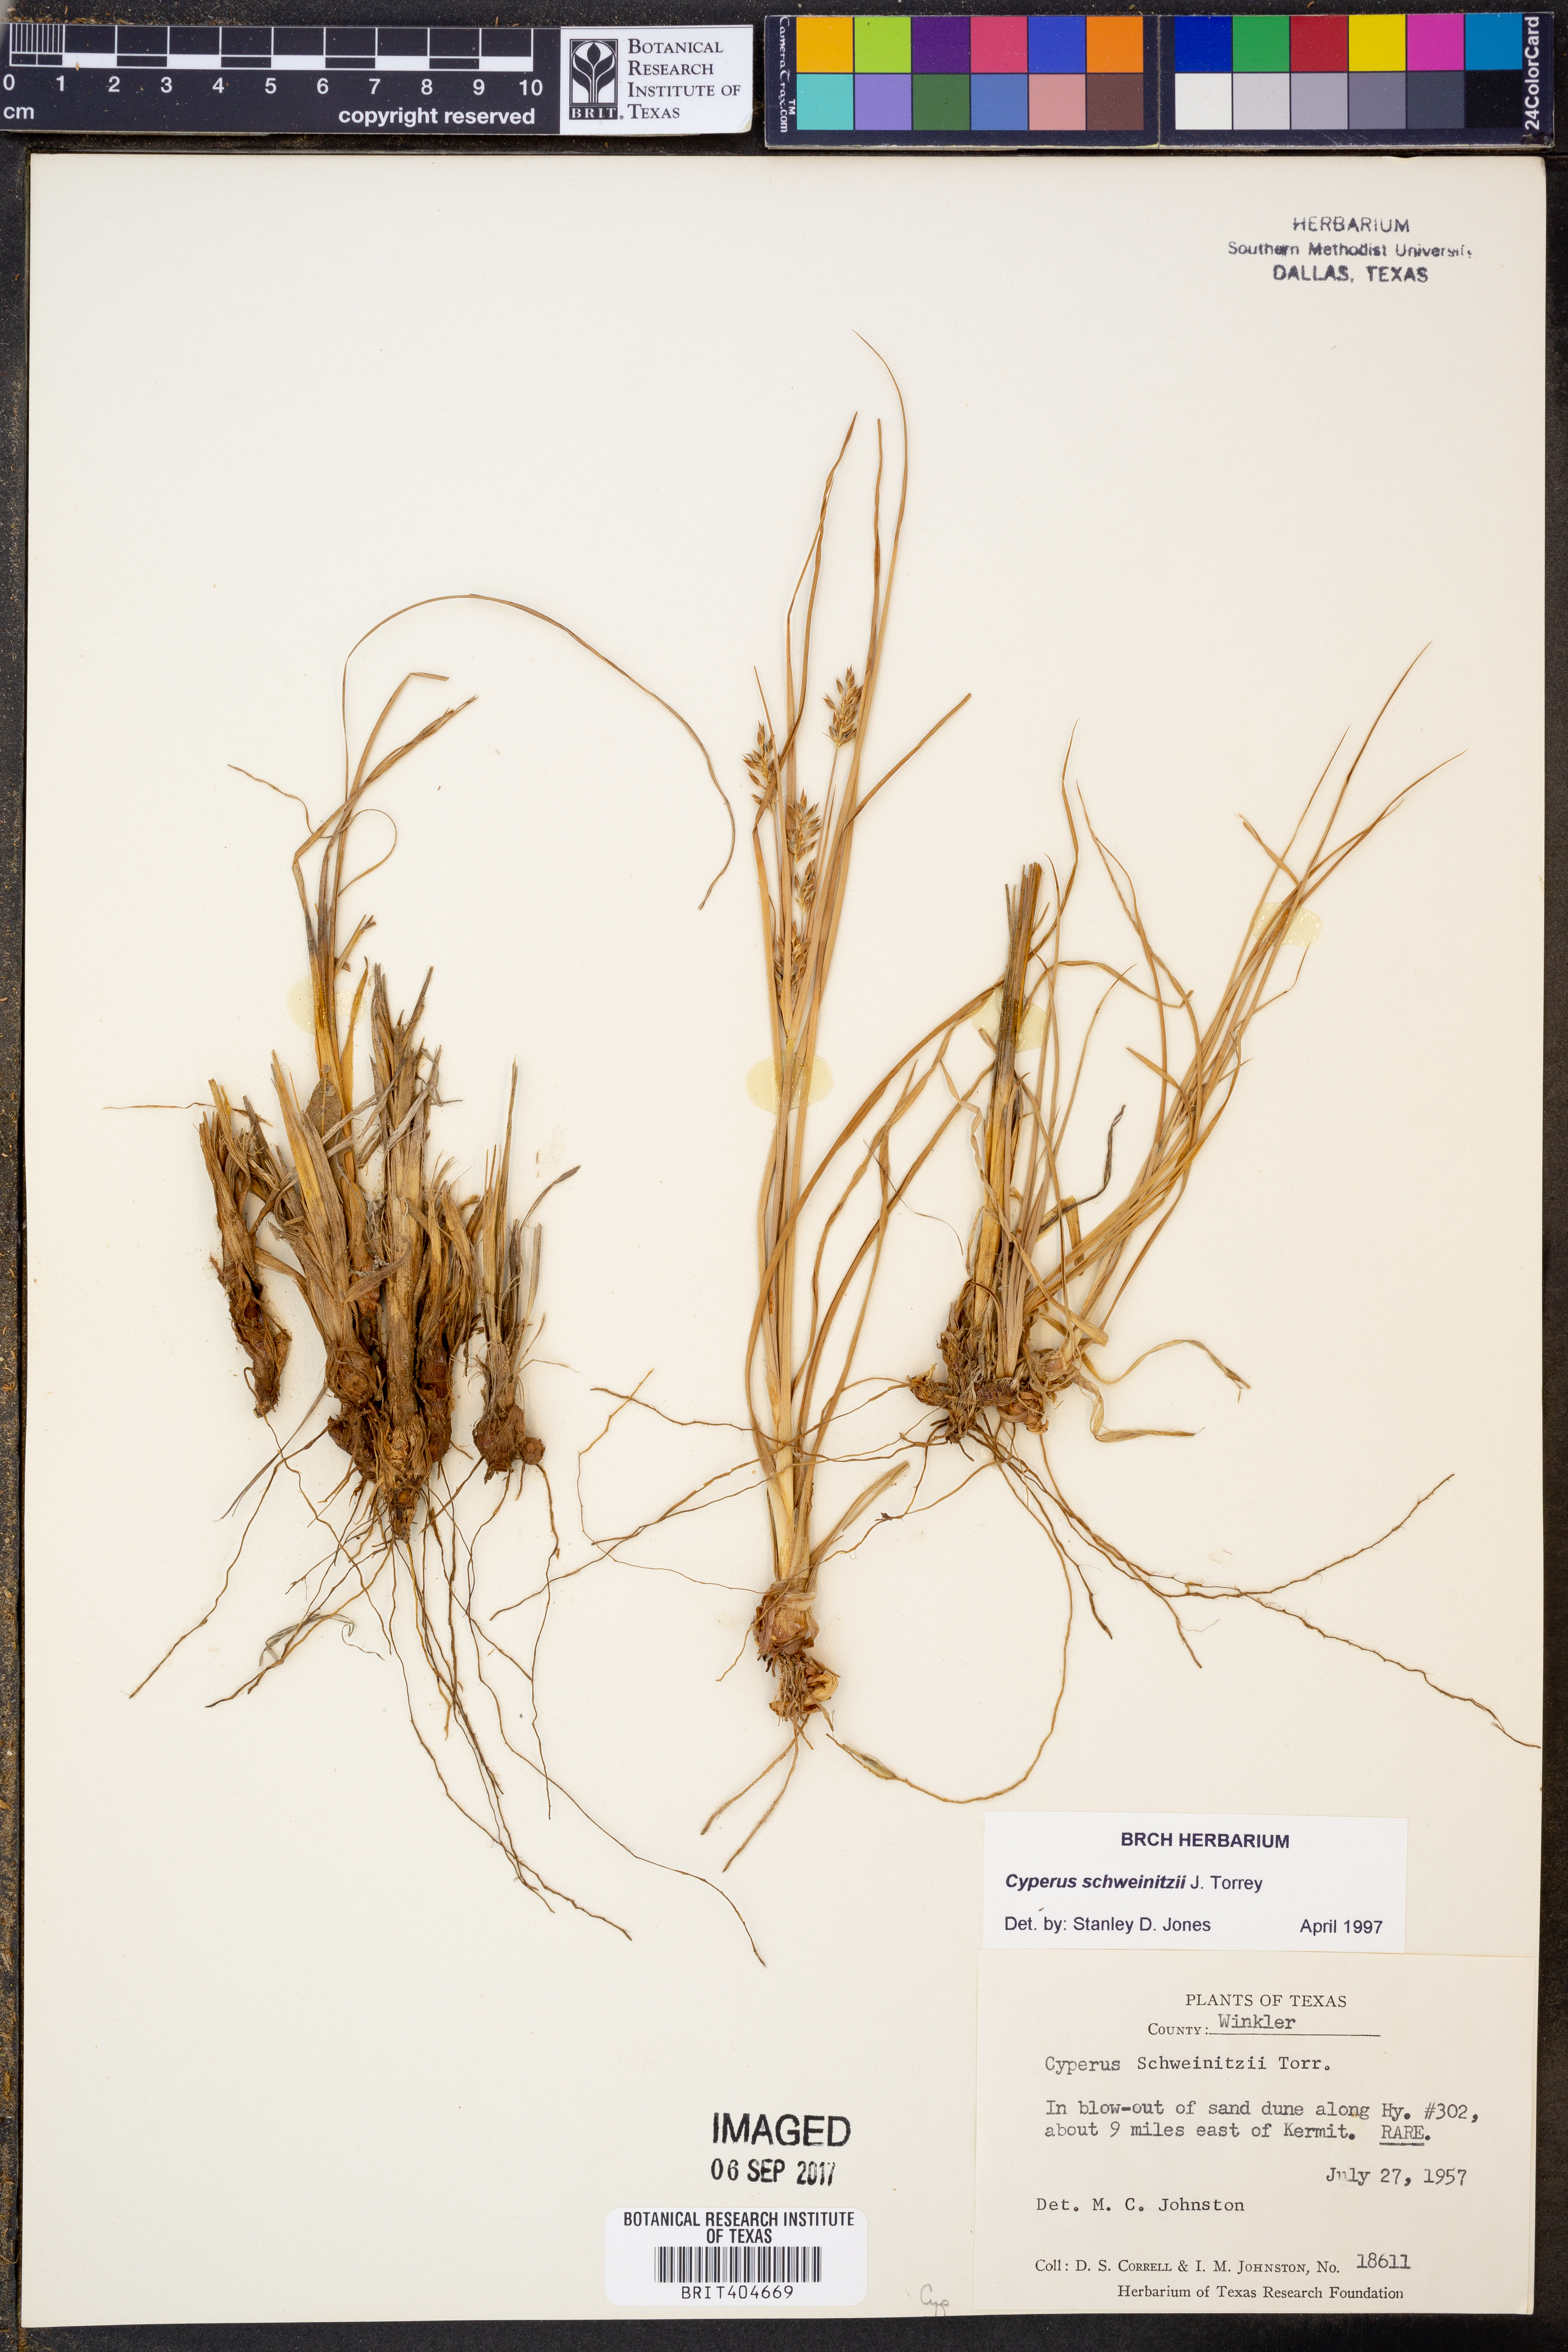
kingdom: Plantae
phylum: Tracheophyta
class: Liliopsida
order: Poales
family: Cyperaceae
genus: Cyperus
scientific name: Cyperus schweinitzii
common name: Schweinitz's cyperus
